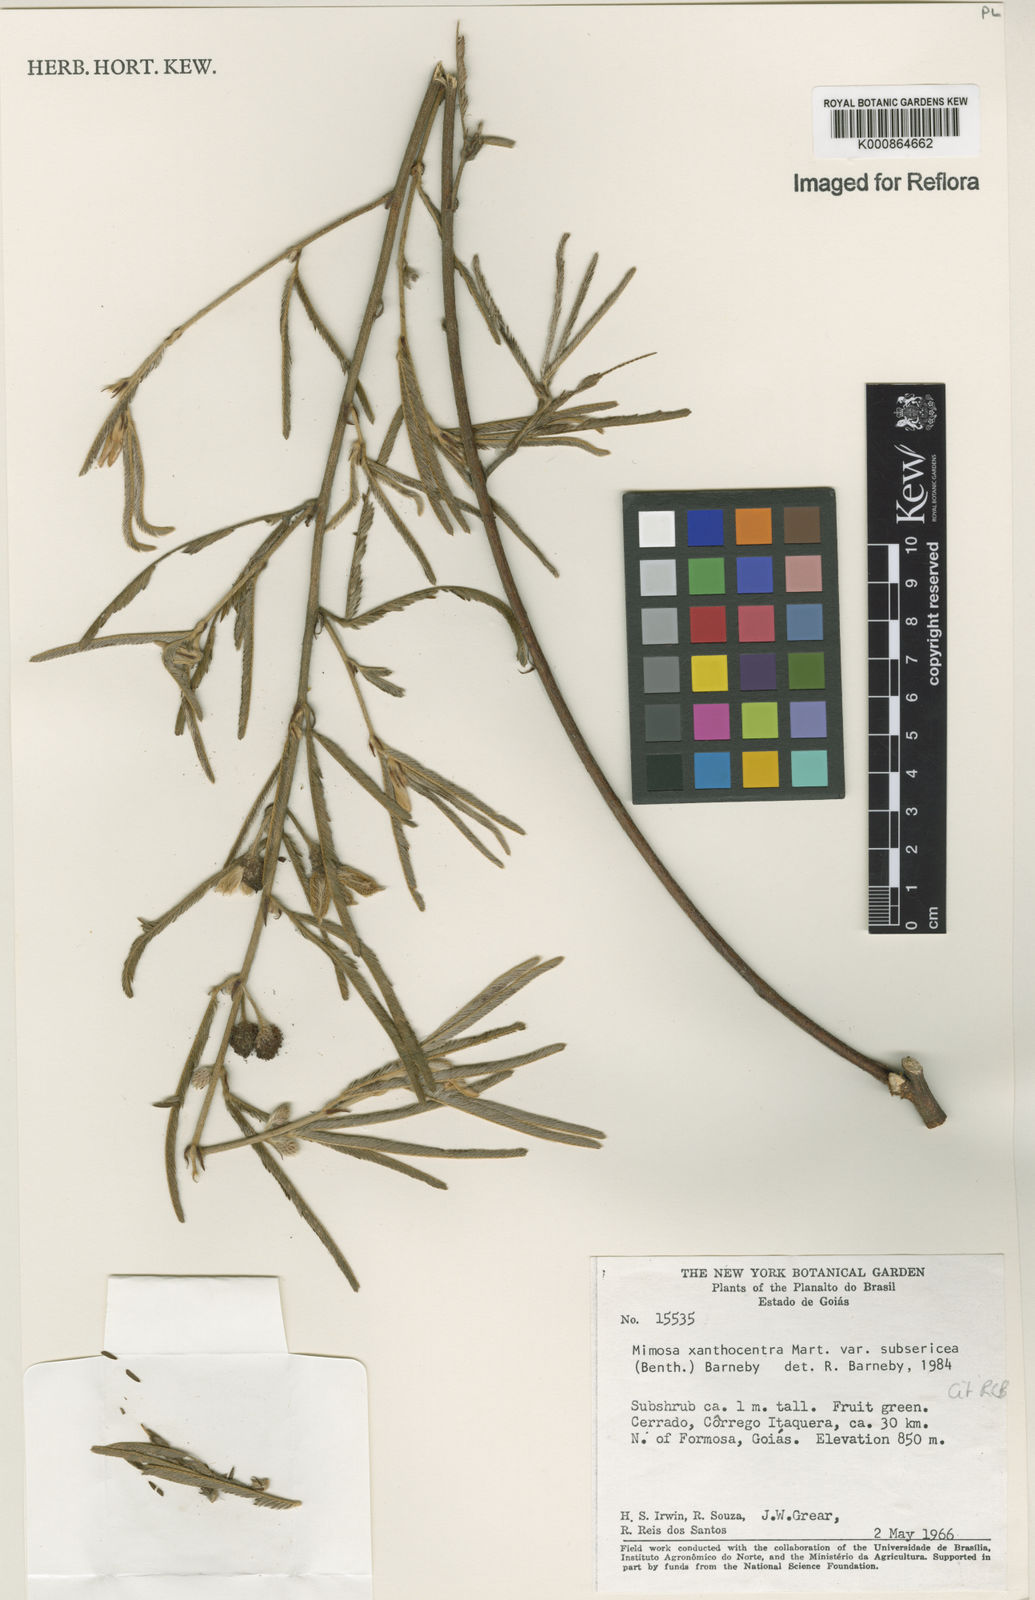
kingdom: Plantae
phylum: Tracheophyta
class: Magnoliopsida
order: Fabales
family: Fabaceae
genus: Mimosa
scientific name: Mimosa xanthocentra
